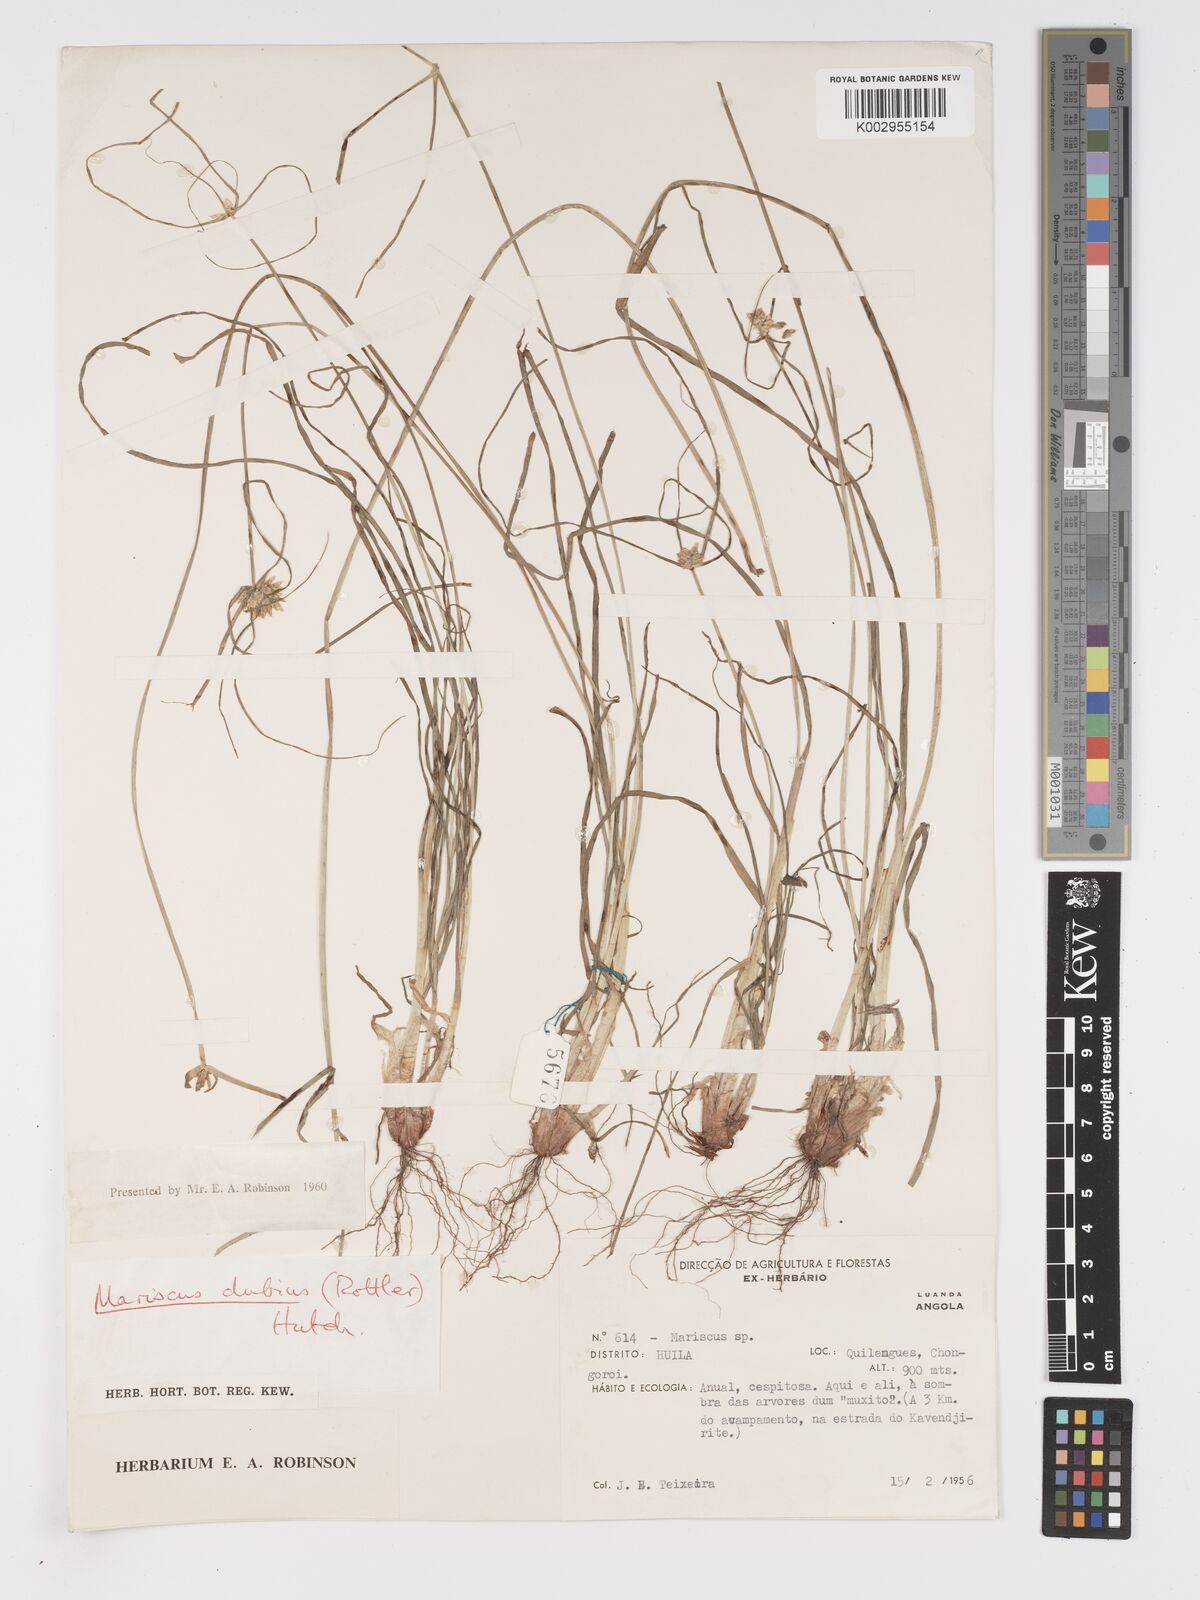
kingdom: Plantae
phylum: Tracheophyta
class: Liliopsida
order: Poales
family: Cyperaceae
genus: Cyperus
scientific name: Cyperus dubius
